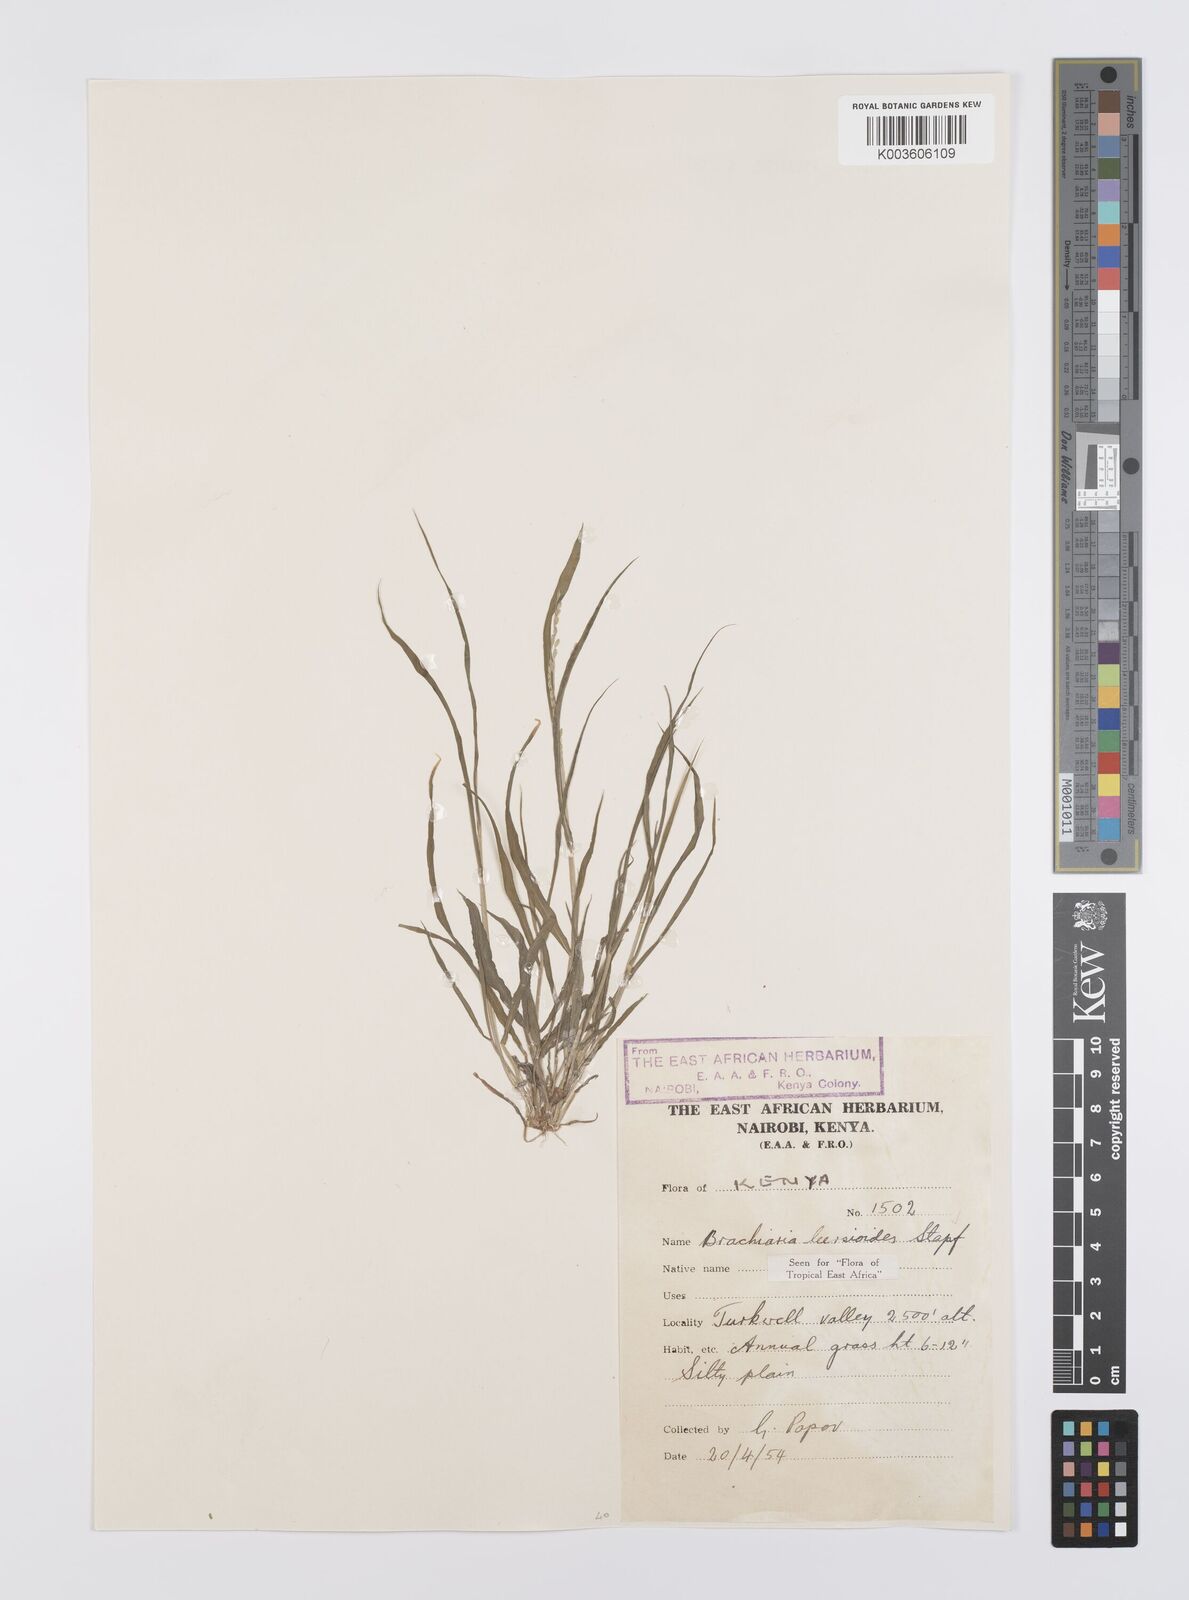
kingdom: Plantae
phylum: Tracheophyta
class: Liliopsida
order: Poales
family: Poaceae
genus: Urochloa
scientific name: Urochloa leersioides
